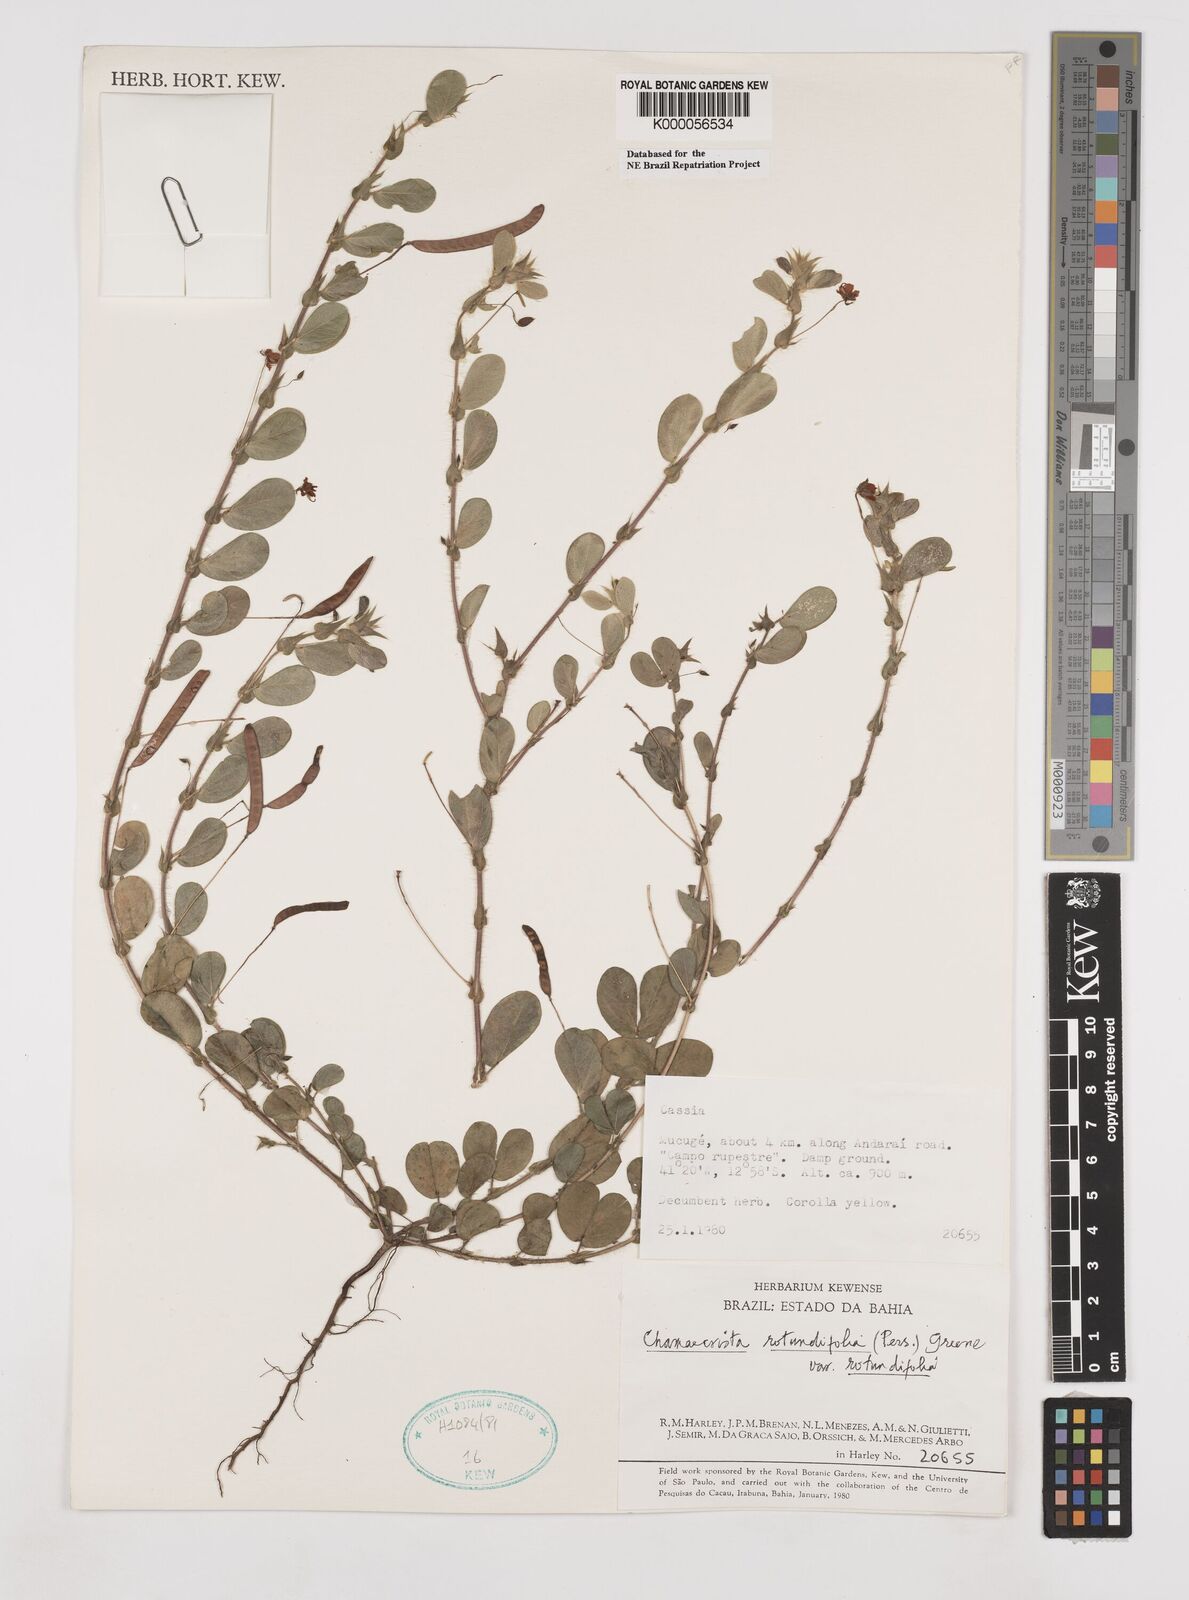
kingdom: Plantae
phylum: Tracheophyta
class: Magnoliopsida
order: Fabales
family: Fabaceae
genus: Chamaecrista
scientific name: Chamaecrista rotundifolia
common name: Round-leaf cassia
